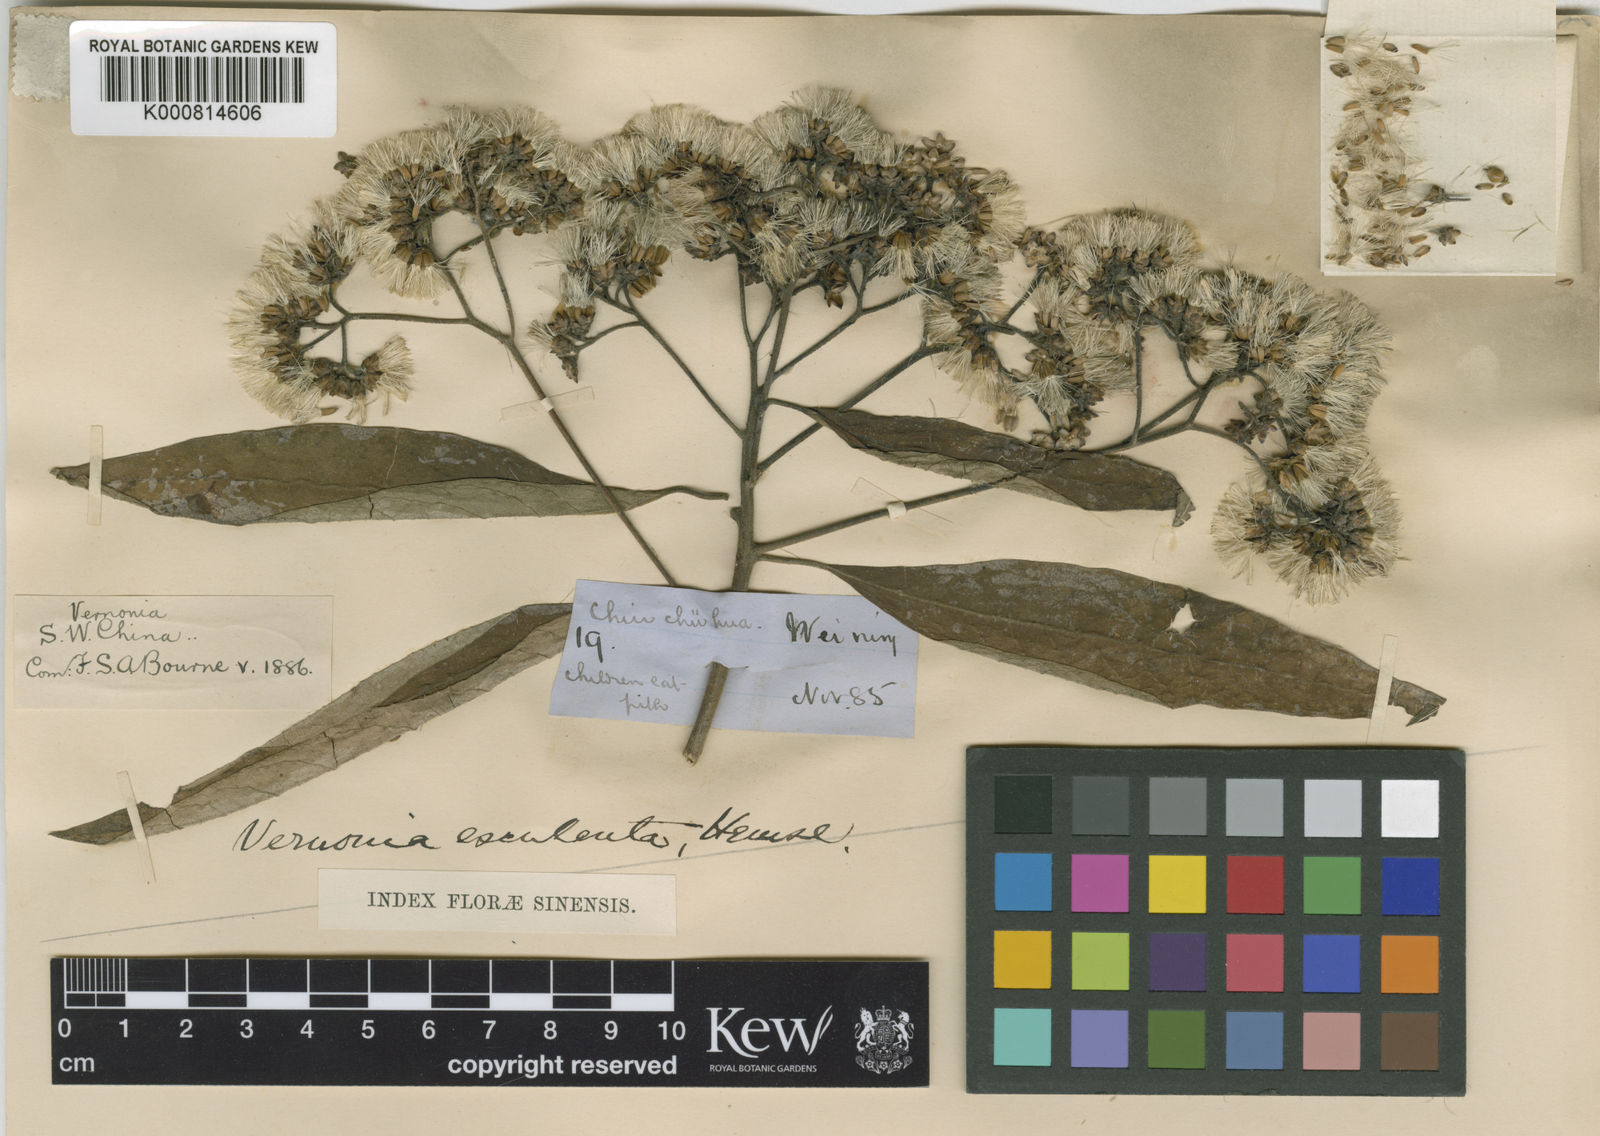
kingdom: Plantae
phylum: Tracheophyta
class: Magnoliopsida
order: Asterales
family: Asteraceae
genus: Strobocalyx
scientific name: Strobocalyx esculenta
